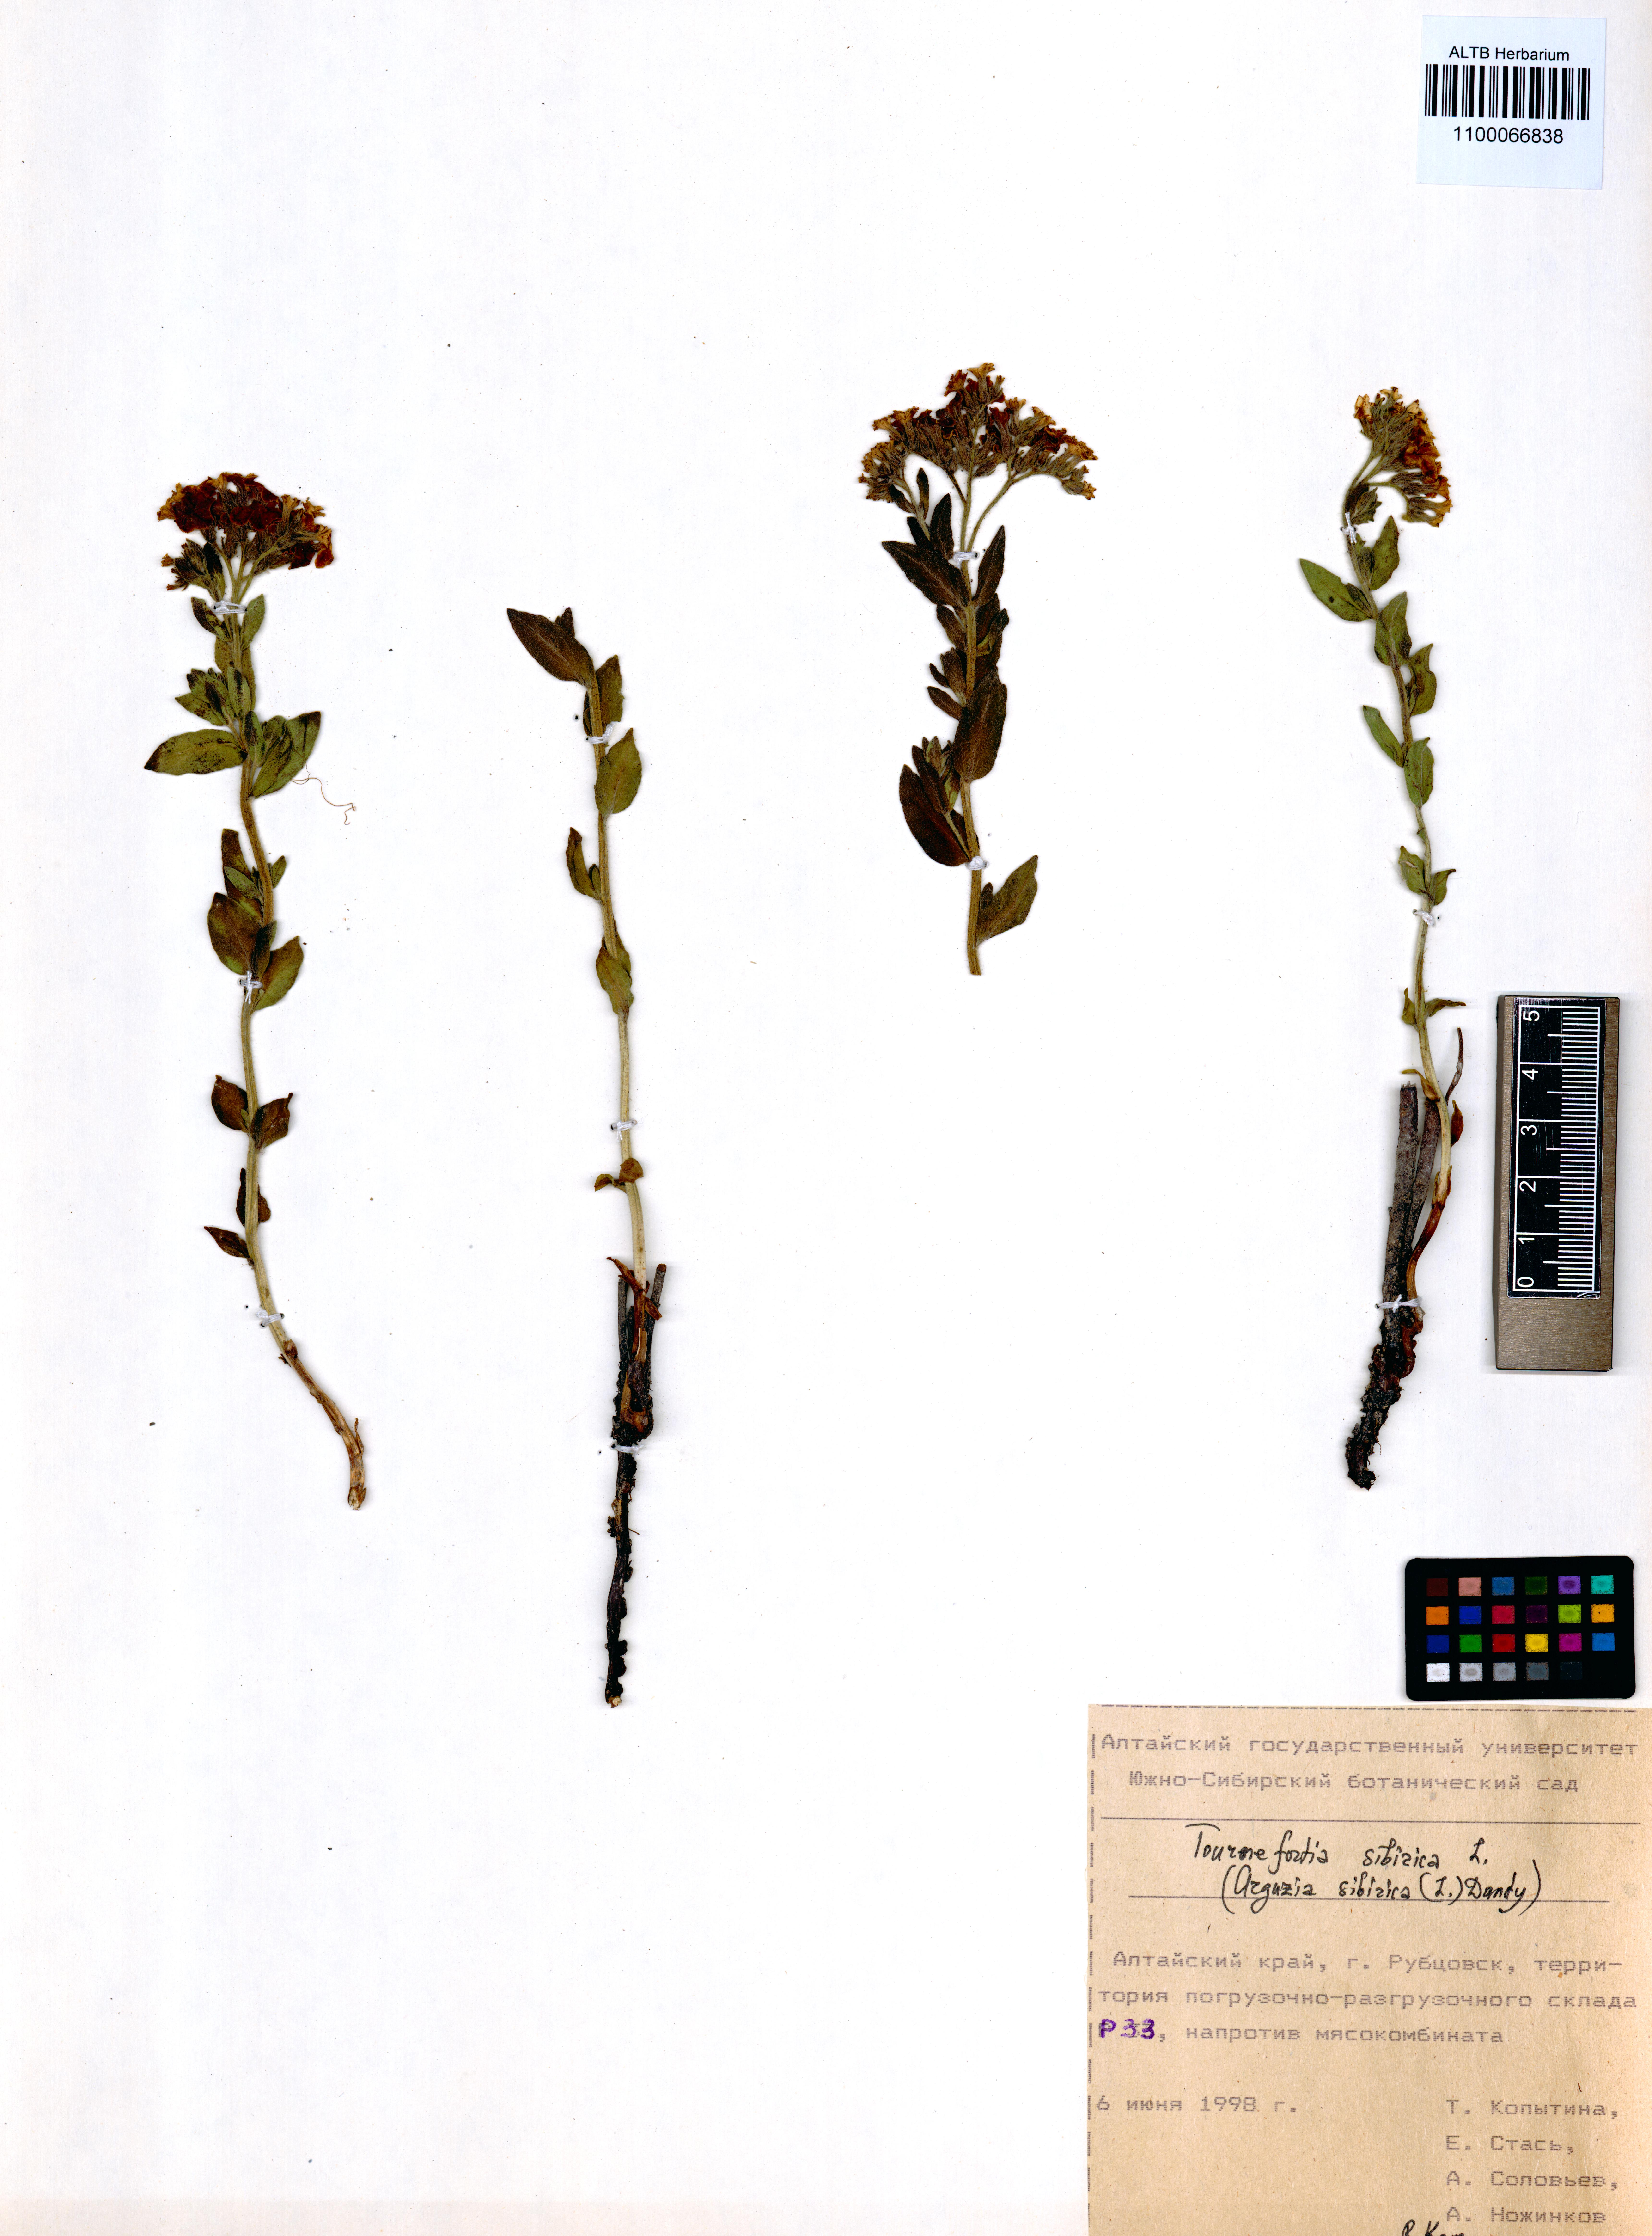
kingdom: Plantae
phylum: Tracheophyta
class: Magnoliopsida
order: Boraginales
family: Heliotropiaceae
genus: Tournefortia
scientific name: Tournefortia sibirica
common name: Siberian sea rosemary
